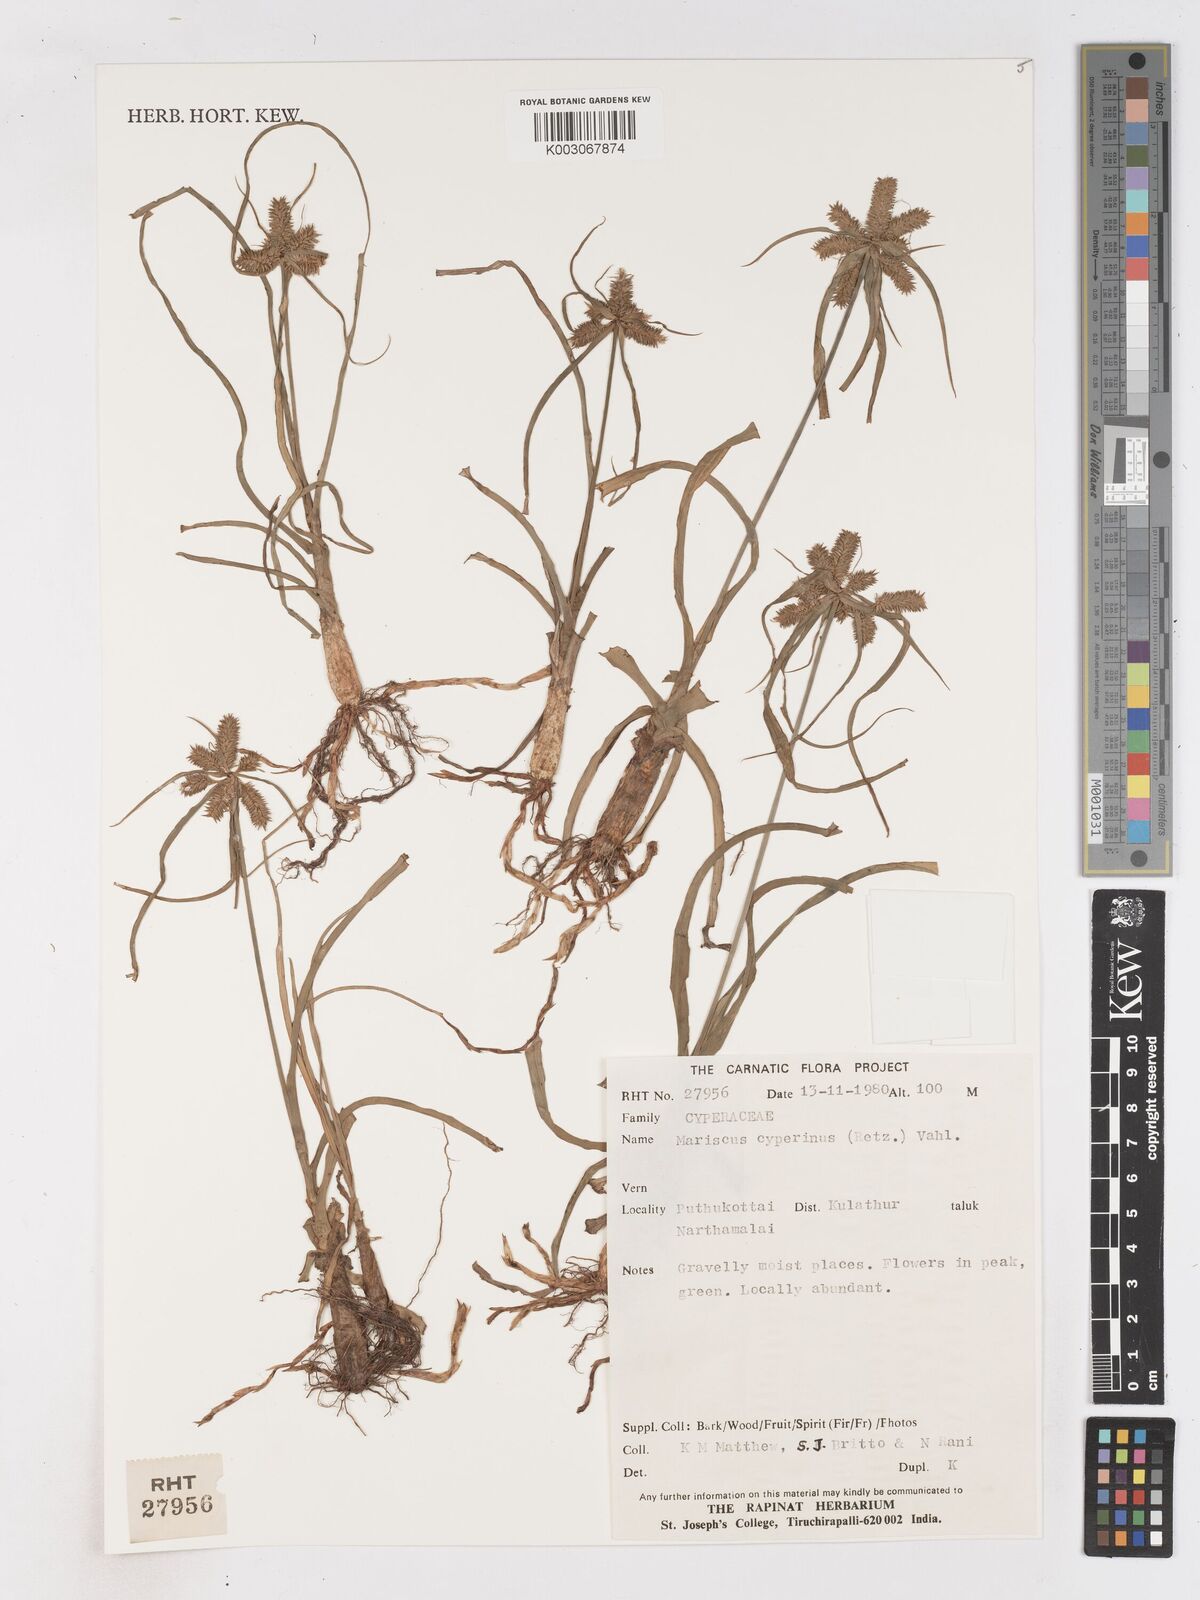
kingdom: Plantae
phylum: Tracheophyta
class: Liliopsida
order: Poales
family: Cyperaceae
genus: Cyperus
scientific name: Cyperus cyperinus
